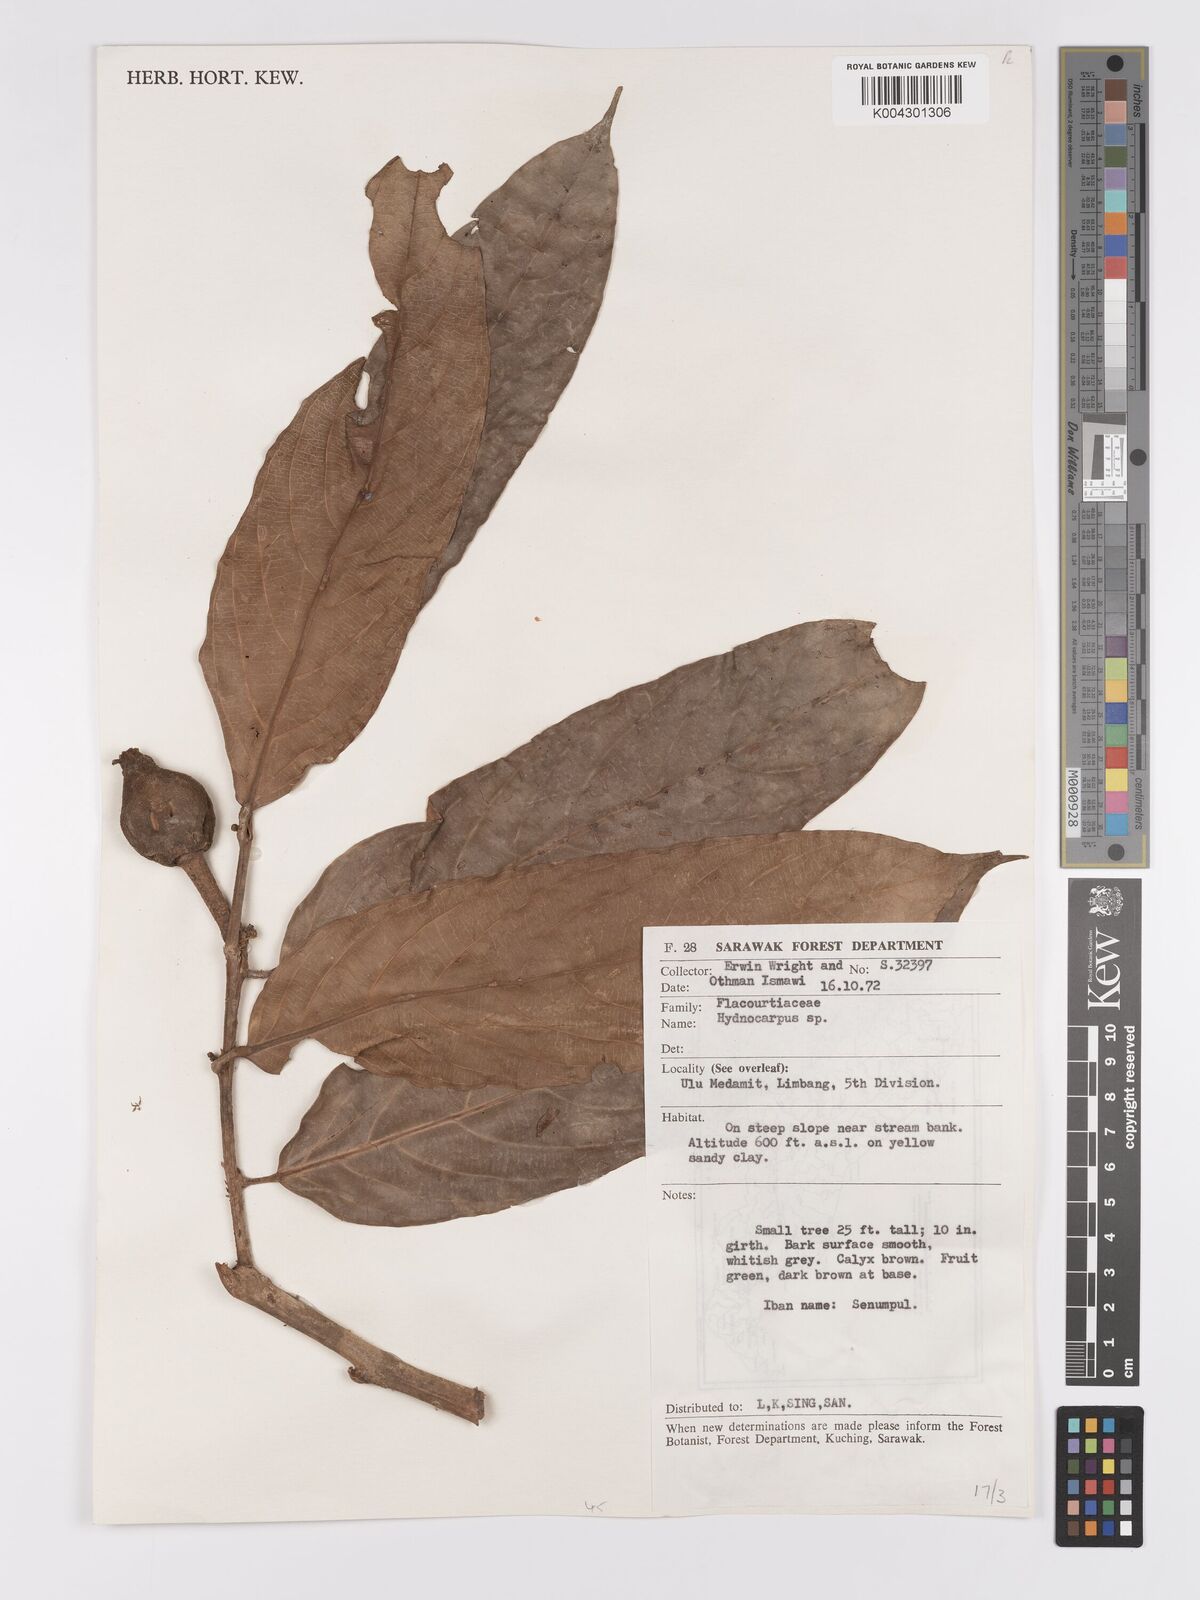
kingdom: Plantae
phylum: Tracheophyta
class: Magnoliopsida
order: Malpighiales
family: Achariaceae
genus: Hydnocarpus
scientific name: Hydnocarpus
